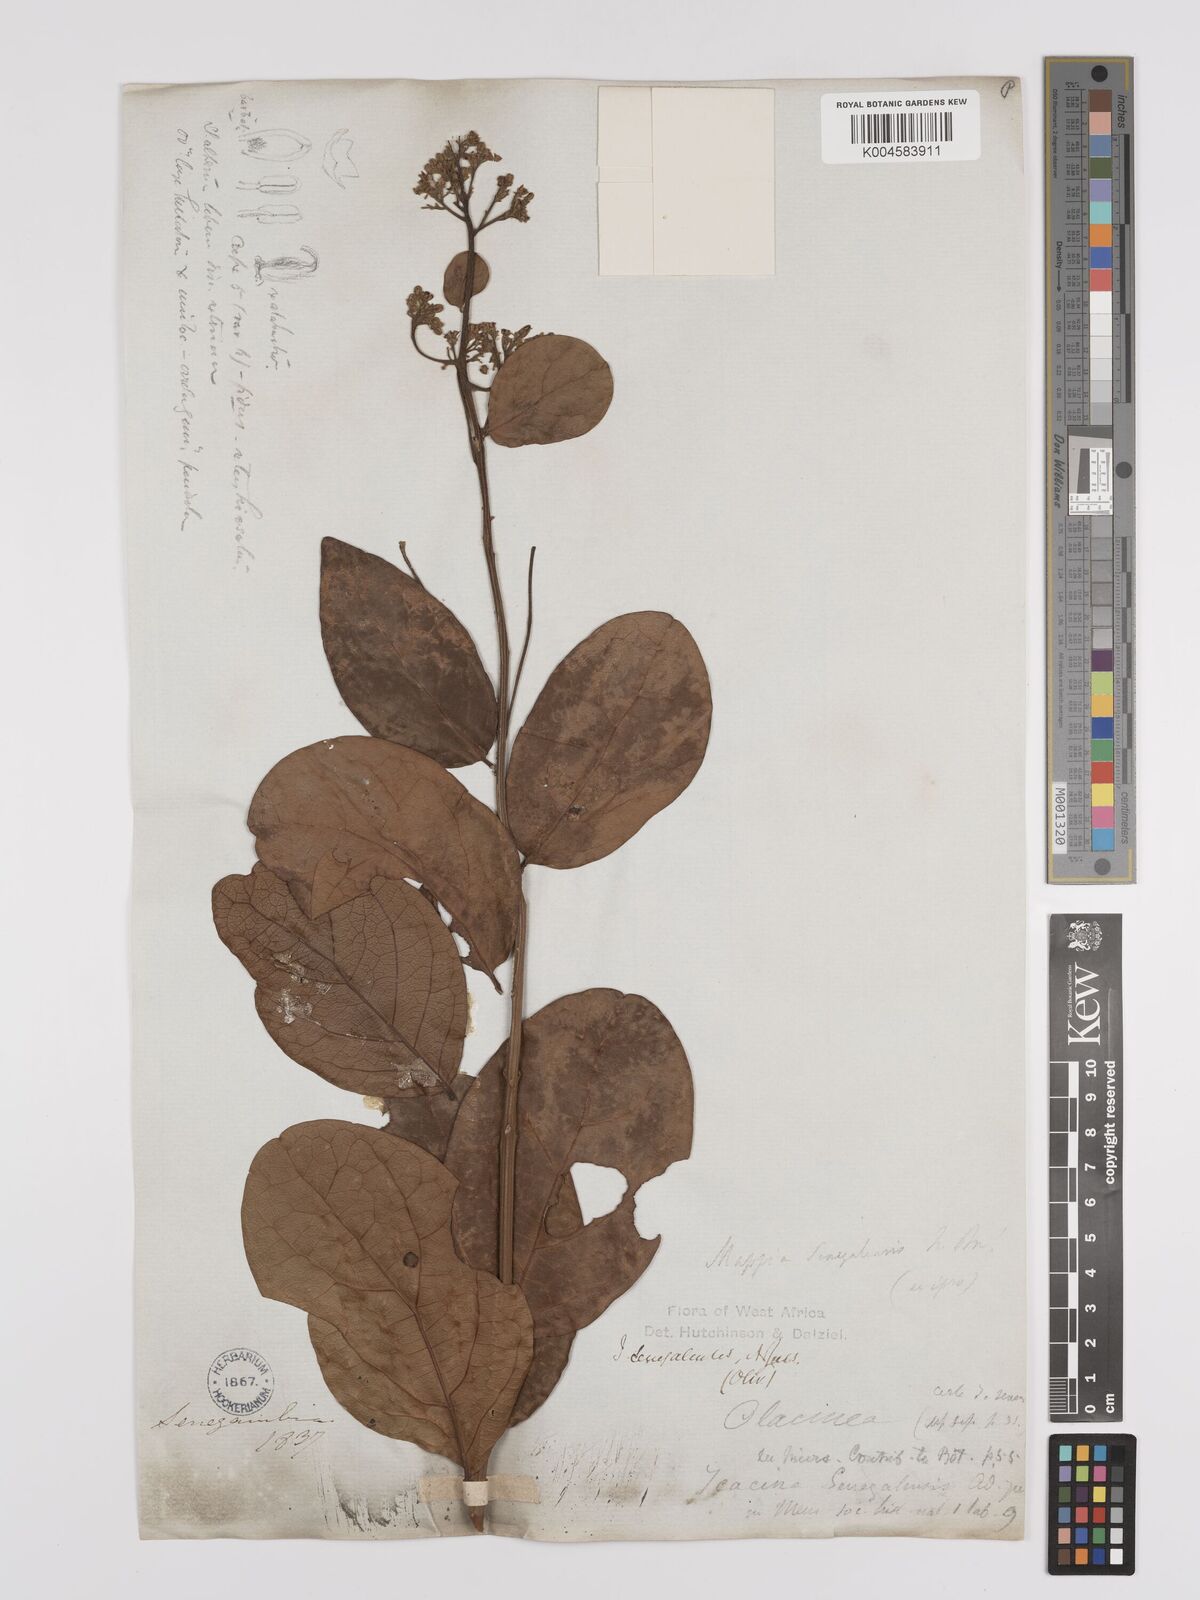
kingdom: Plantae
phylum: Tracheophyta
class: Magnoliopsida
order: Icacinales
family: Icacinaceae
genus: Icacina
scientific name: Icacina oliviformis
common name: False yam
